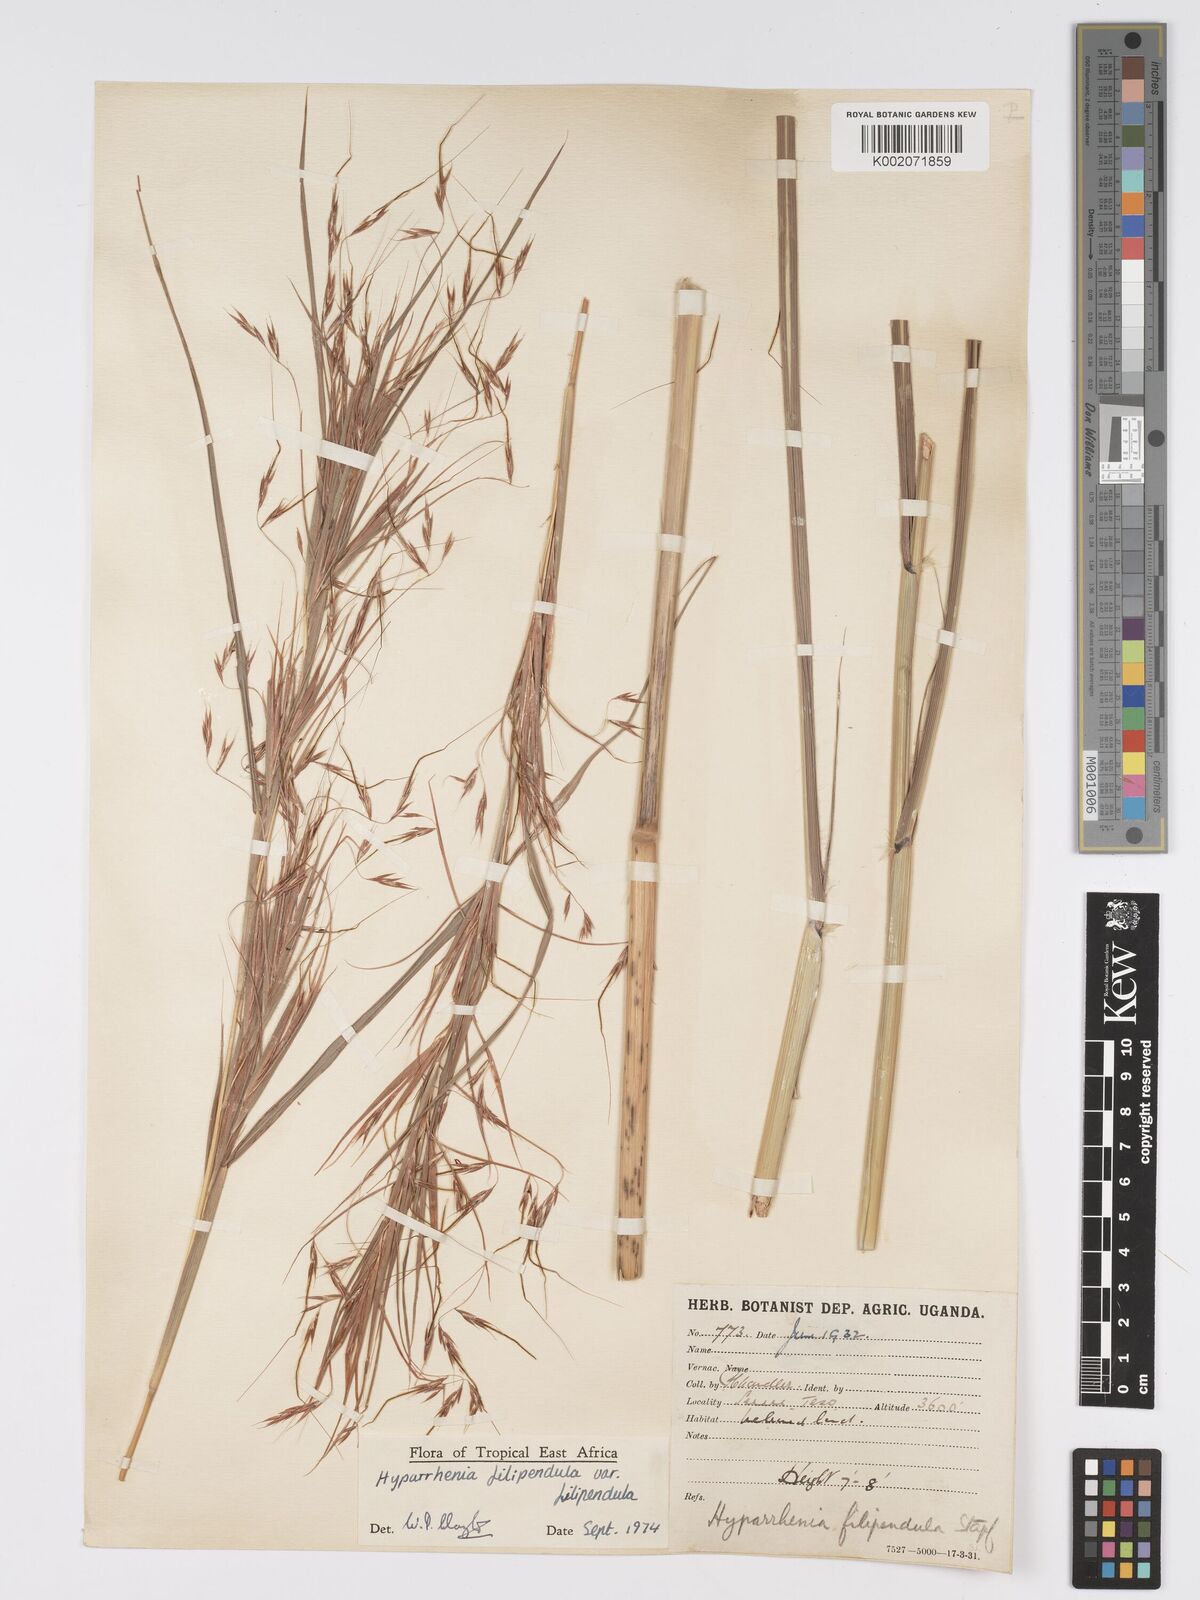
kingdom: Plantae
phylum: Tracheophyta
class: Liliopsida
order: Poales
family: Poaceae
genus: Hyparrhenia
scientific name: Hyparrhenia filipendula
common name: Tambookie grass
